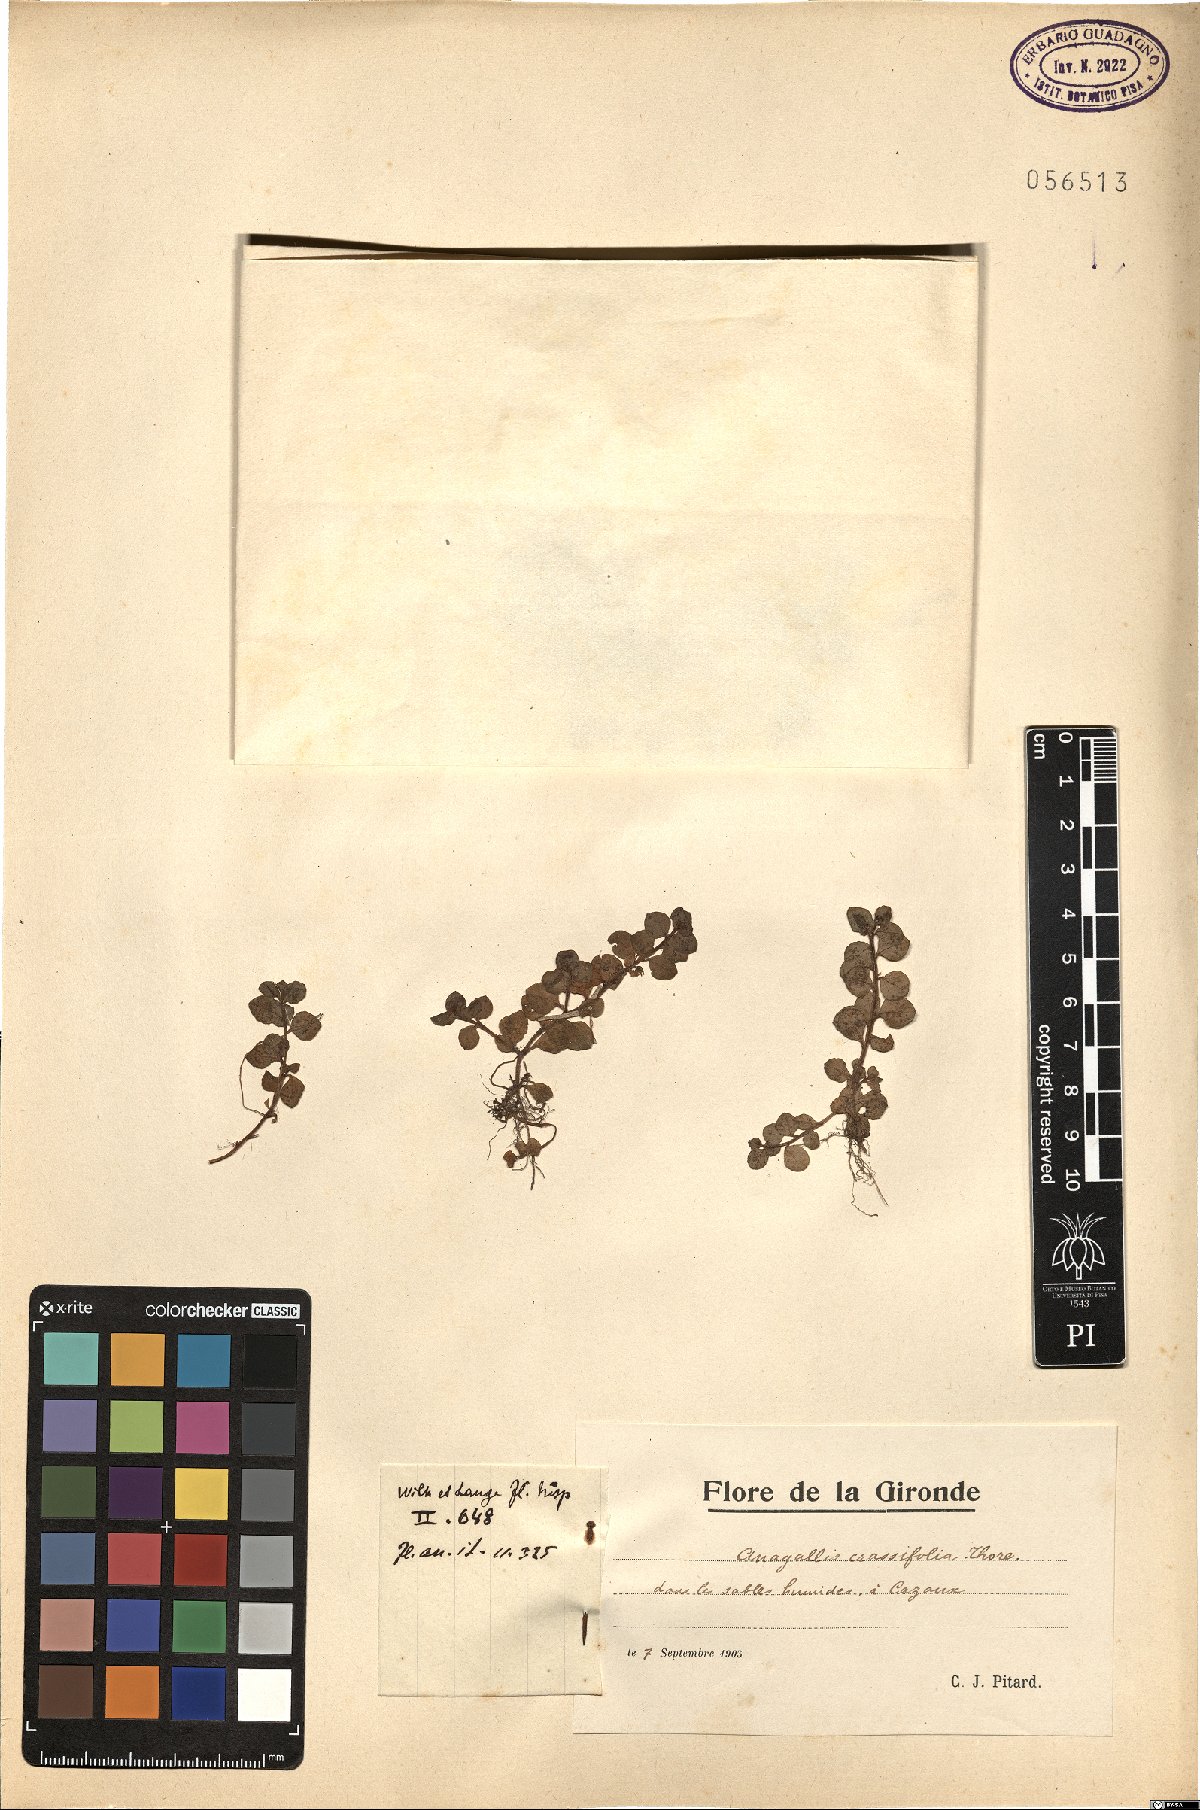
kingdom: Plantae
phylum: Tracheophyta
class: Magnoliopsida
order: Ericales
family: Primulaceae
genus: Lysimachia
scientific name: Lysimachia tyrrhenia
